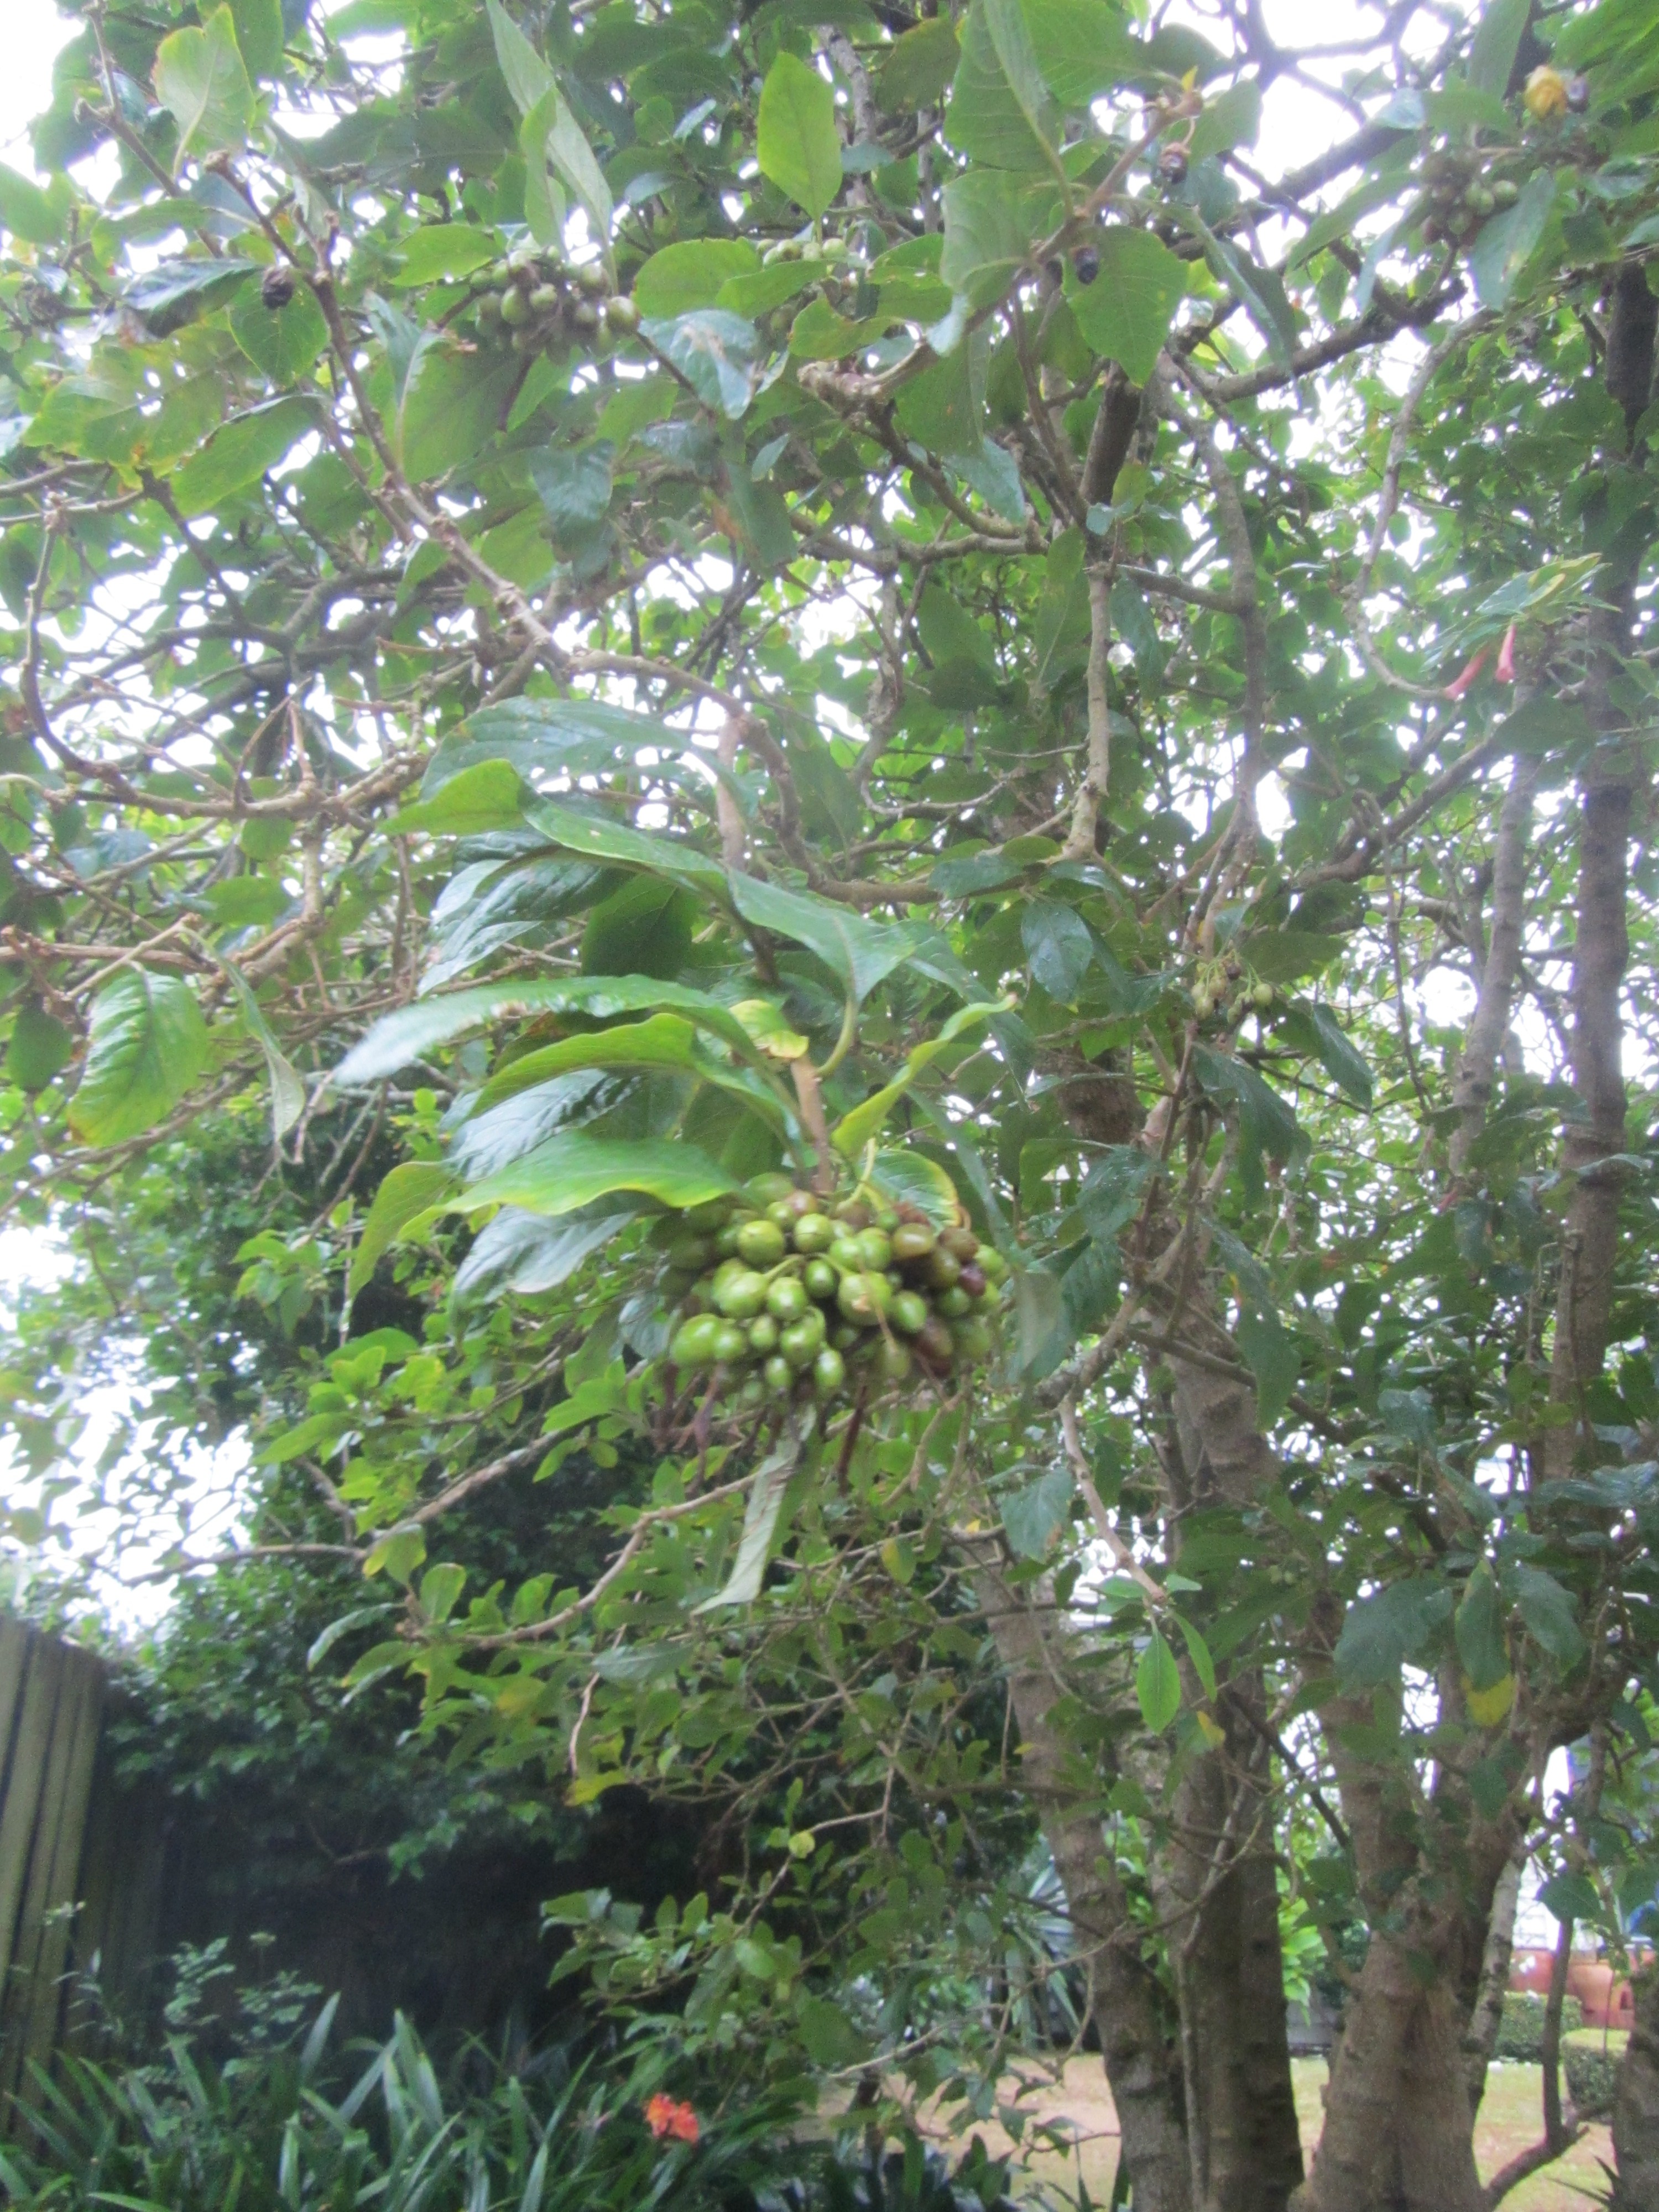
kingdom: Plantae
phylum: Tracheophyta
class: Magnoliopsida
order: Solanales
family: Solanaceae
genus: Iochroma
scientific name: Iochroma gesnerioides
